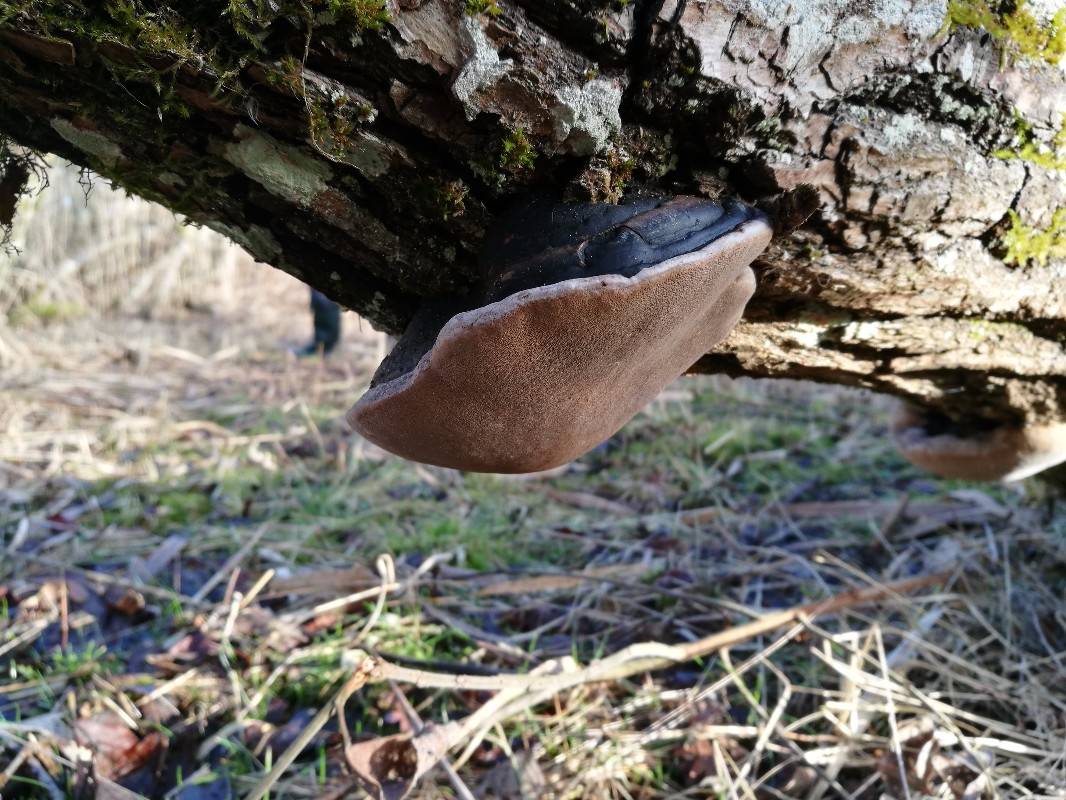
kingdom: Fungi
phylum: Basidiomycota
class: Agaricomycetes
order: Hymenochaetales
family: Hymenochaetaceae
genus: Phellinus
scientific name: Phellinus igniarius
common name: almindelig ildporesvamp
